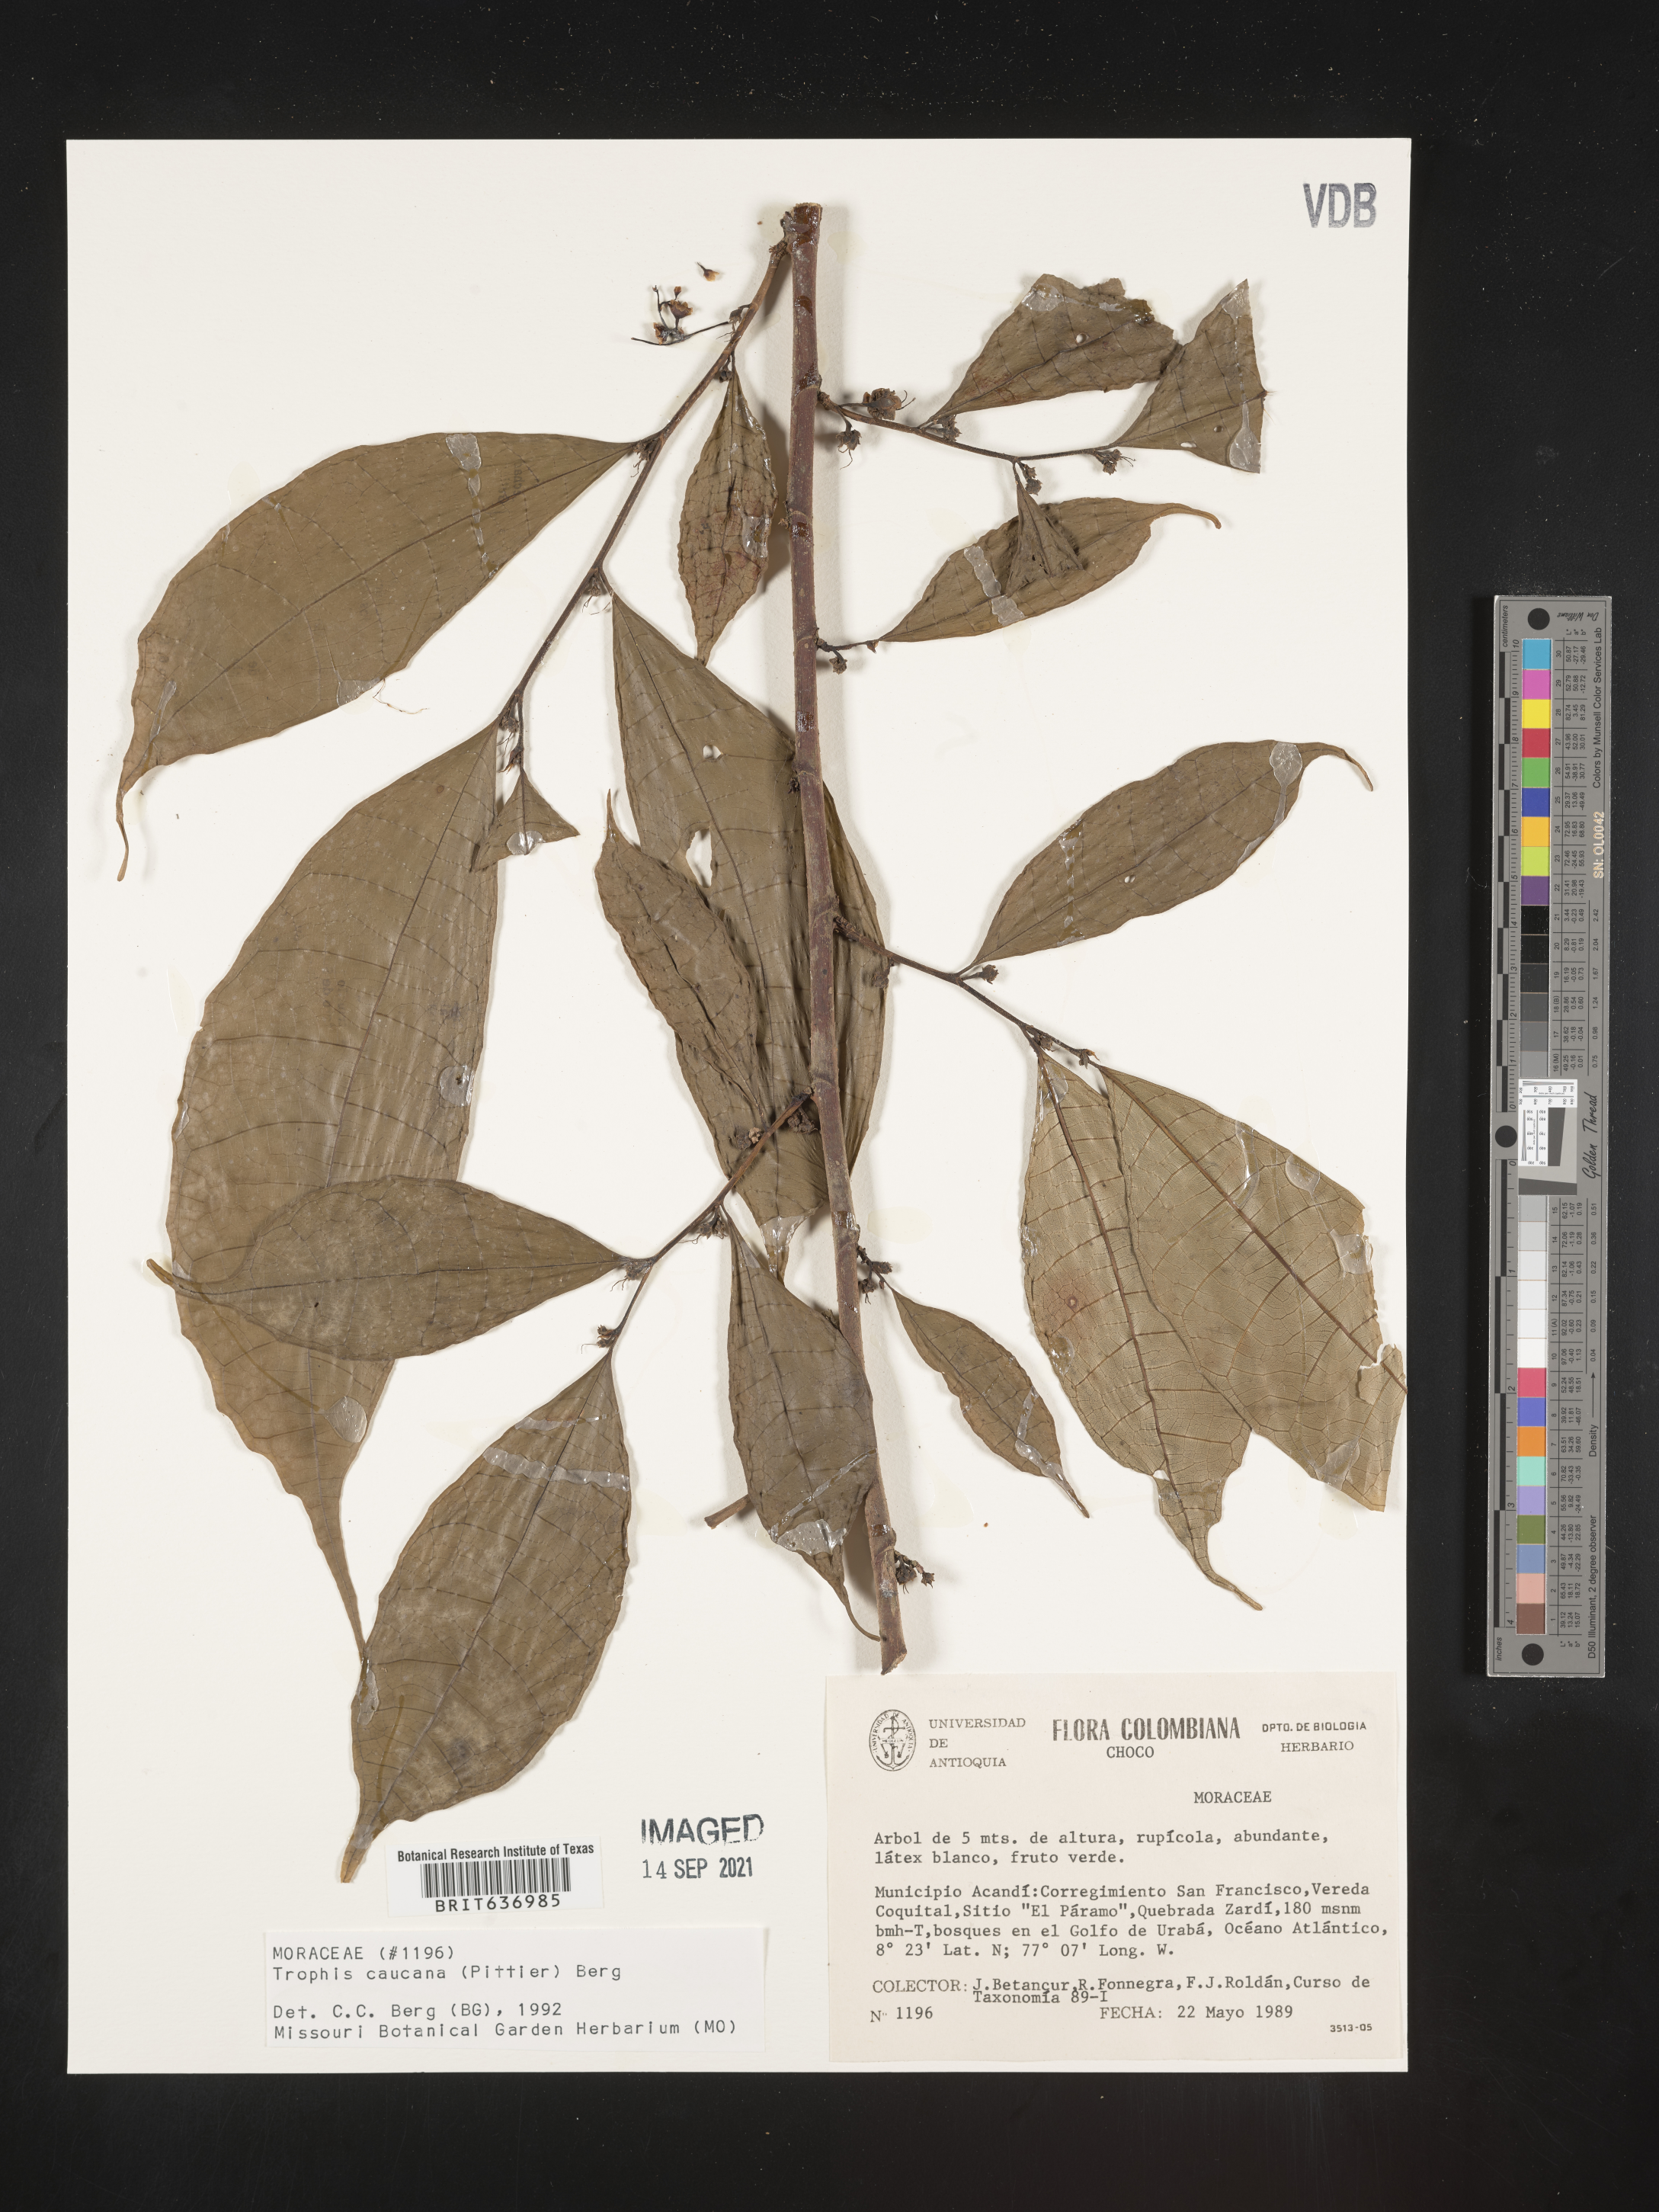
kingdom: Plantae
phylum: Tracheophyta
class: Magnoliopsida
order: Rosales
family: Moraceae
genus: Trophis
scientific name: Trophis
